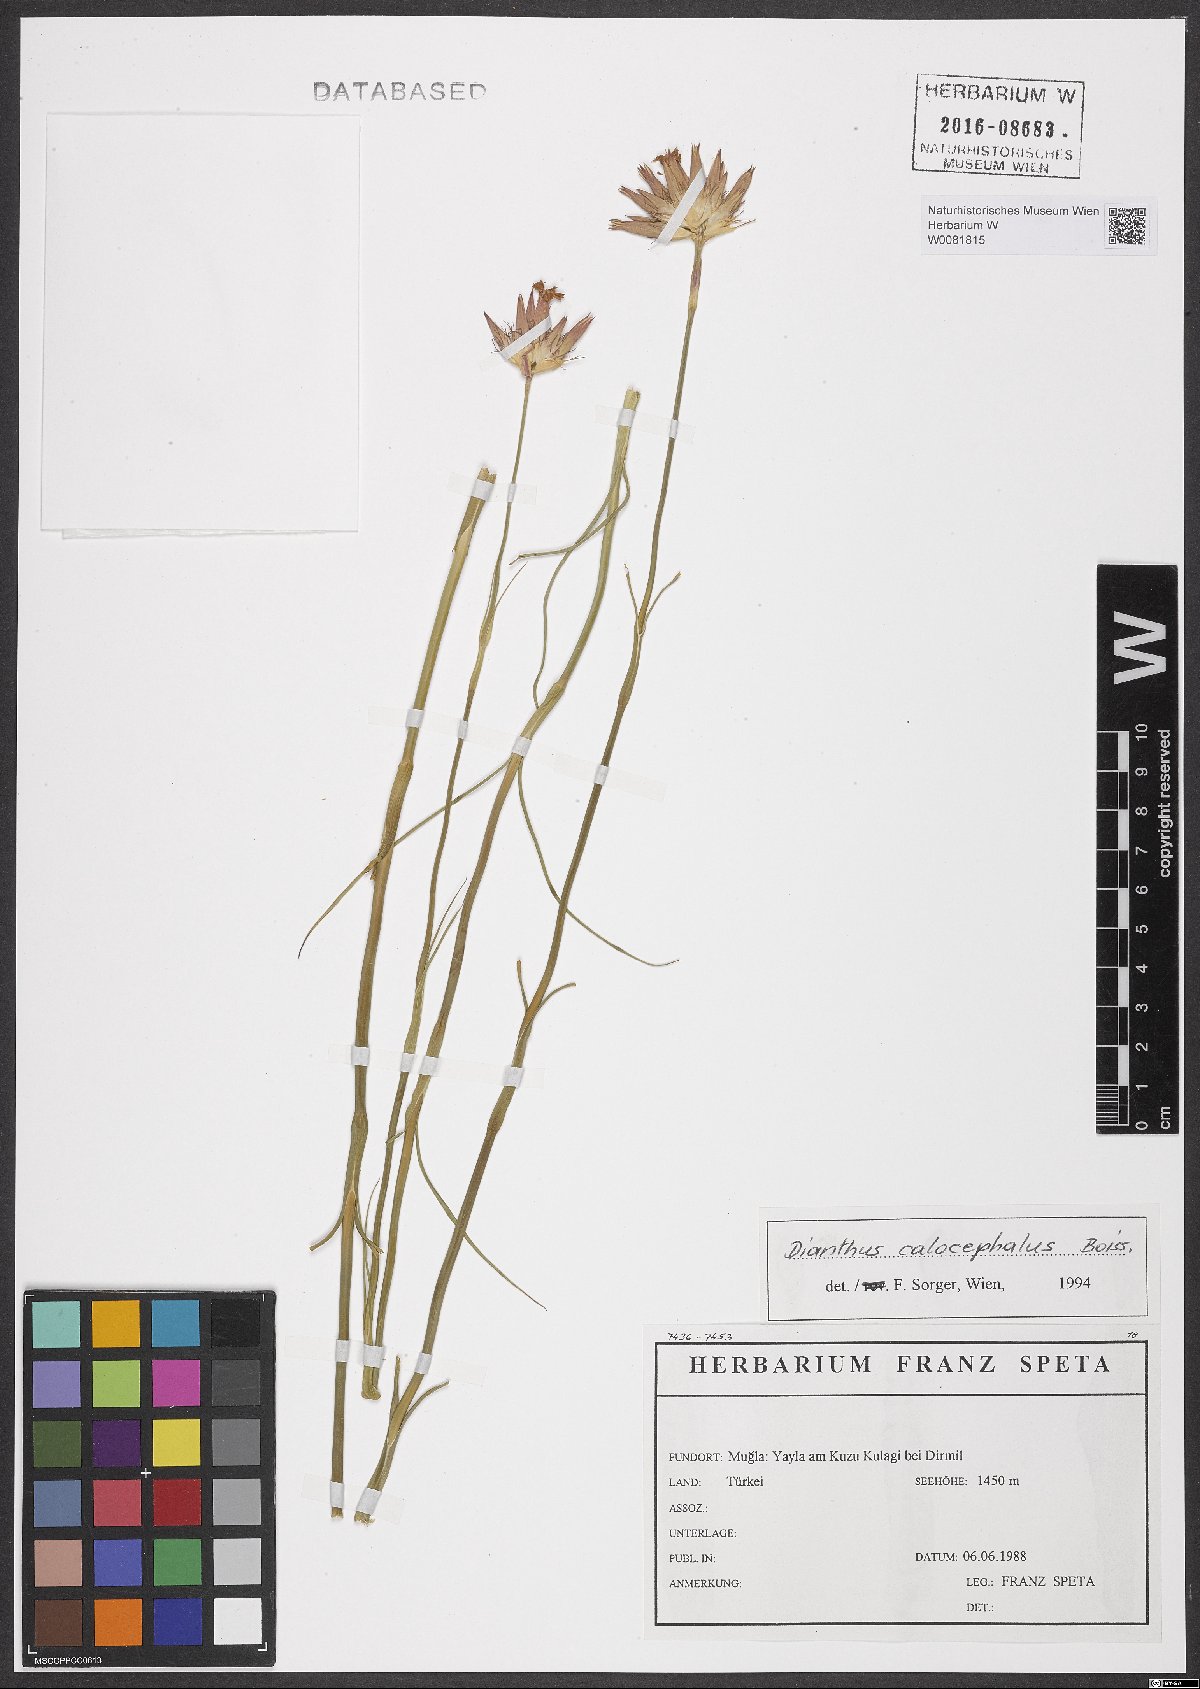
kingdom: Plantae
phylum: Tracheophyta
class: Magnoliopsida
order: Caryophyllales
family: Caryophyllaceae
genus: Dianthus
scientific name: Dianthus cruentus
